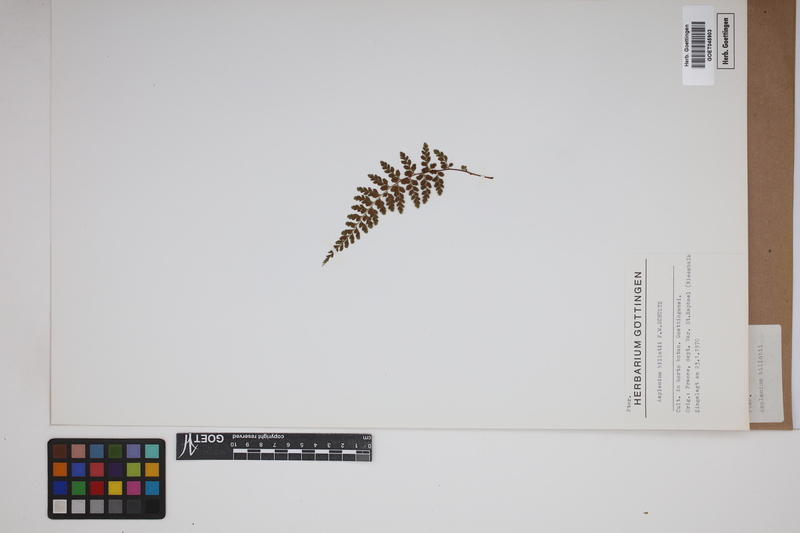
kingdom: Plantae
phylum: Tracheophyta
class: Polypodiopsida
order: Polypodiales
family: Aspleniaceae
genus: Asplenium
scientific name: Asplenium obovatum
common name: Lanceolate spleenwort
